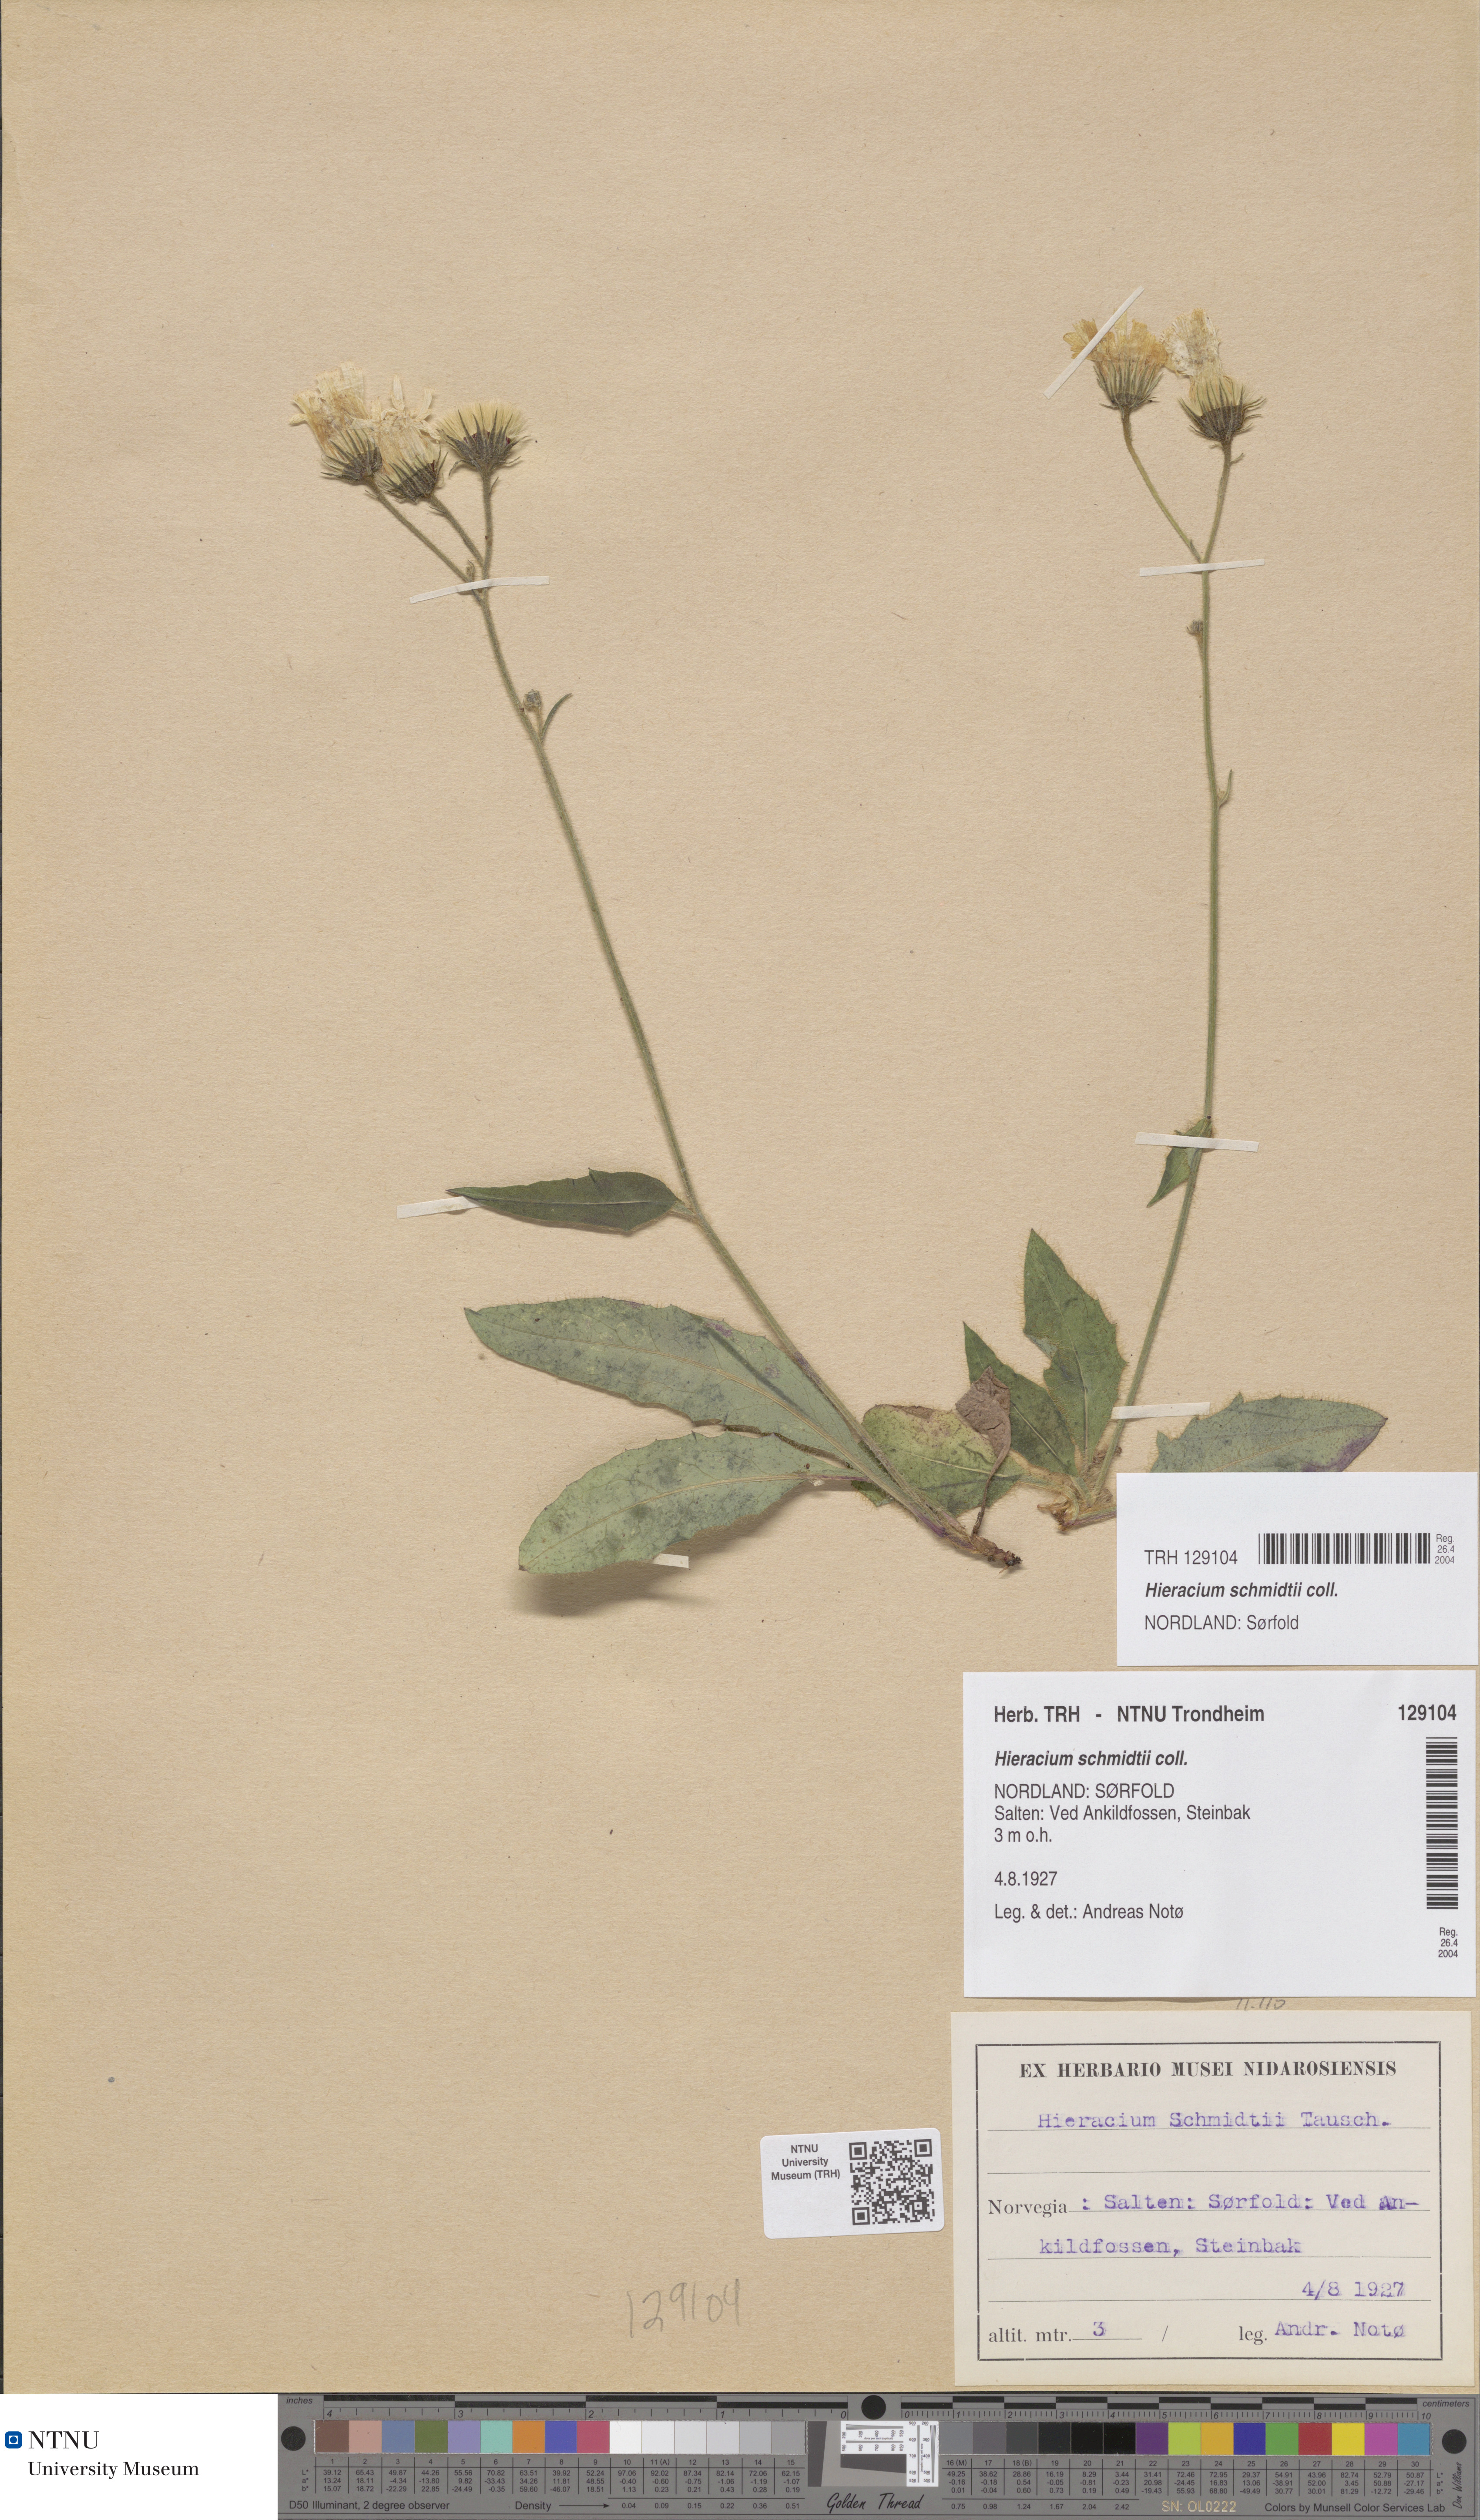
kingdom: Plantae
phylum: Tracheophyta
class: Magnoliopsida
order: Asterales
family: Asteraceae
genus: Hieracium
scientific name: Hieracium schmidtii
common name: Schmidt's hawkweed
